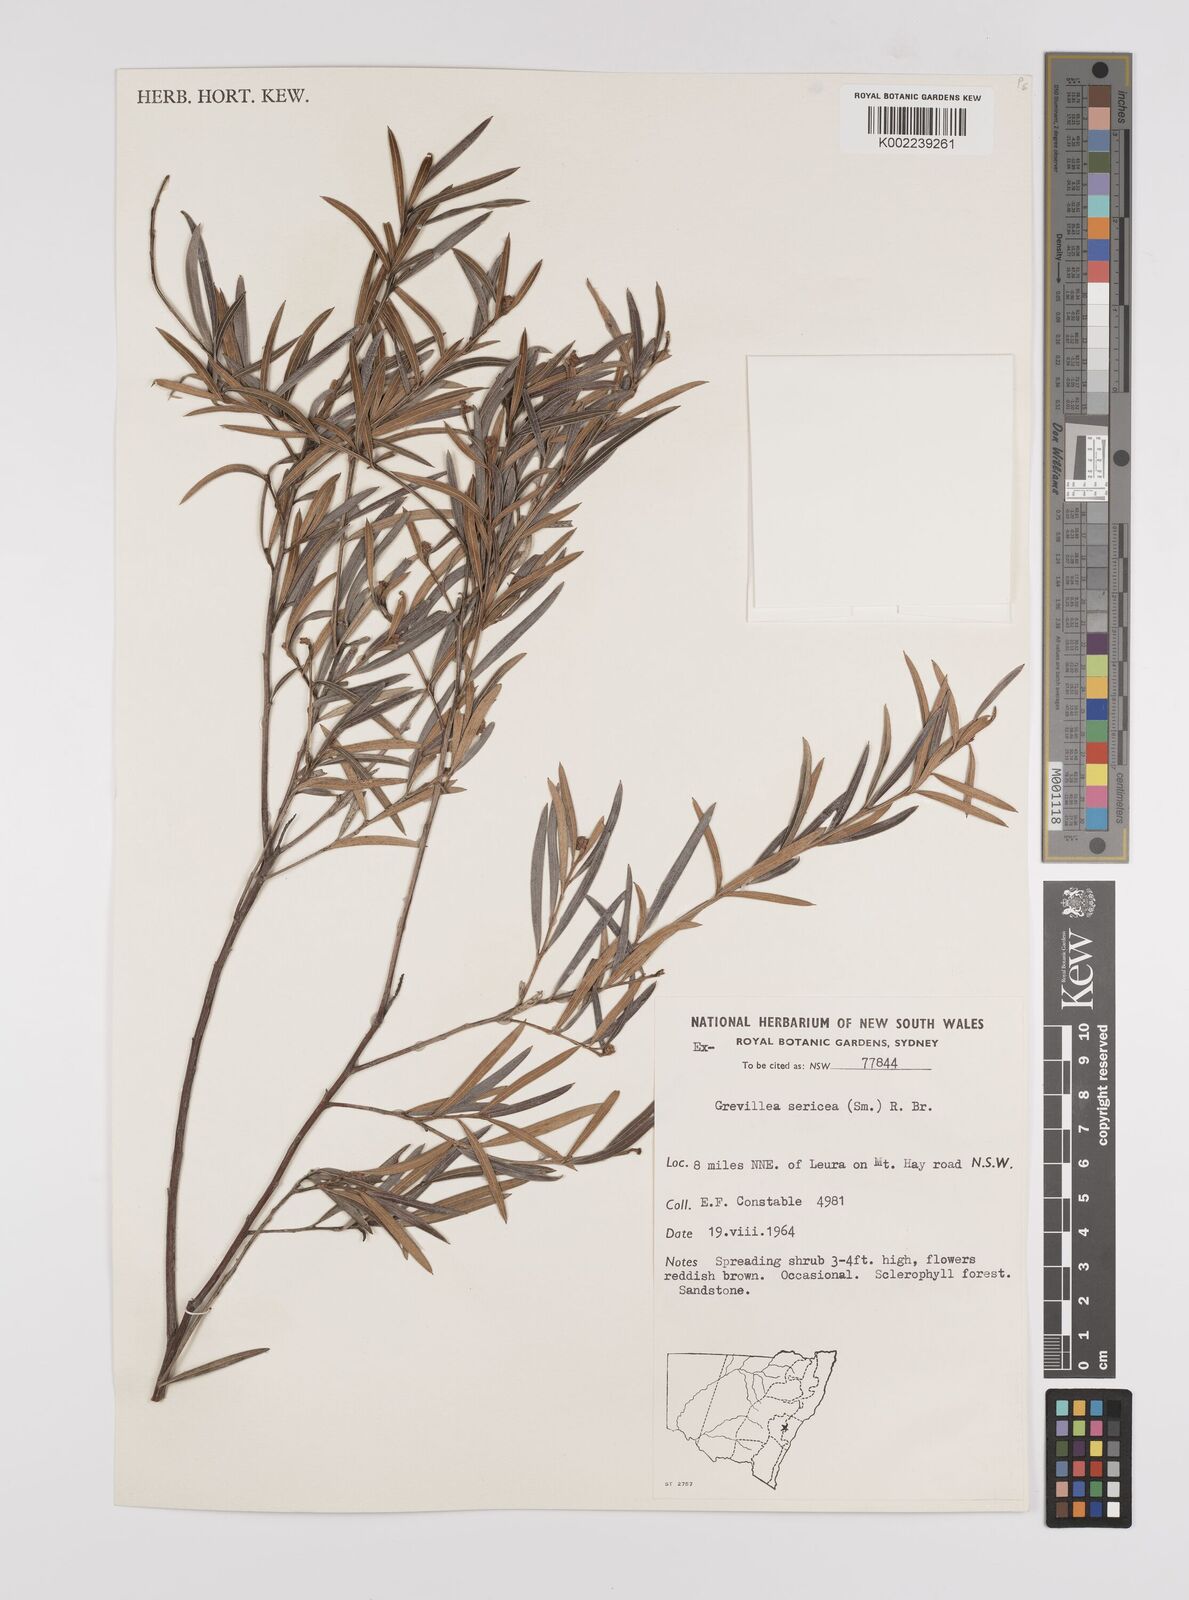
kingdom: Plantae
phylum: Tracheophyta
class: Magnoliopsida
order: Proteales
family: Proteaceae
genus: Grevillea
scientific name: Grevillea sericea
